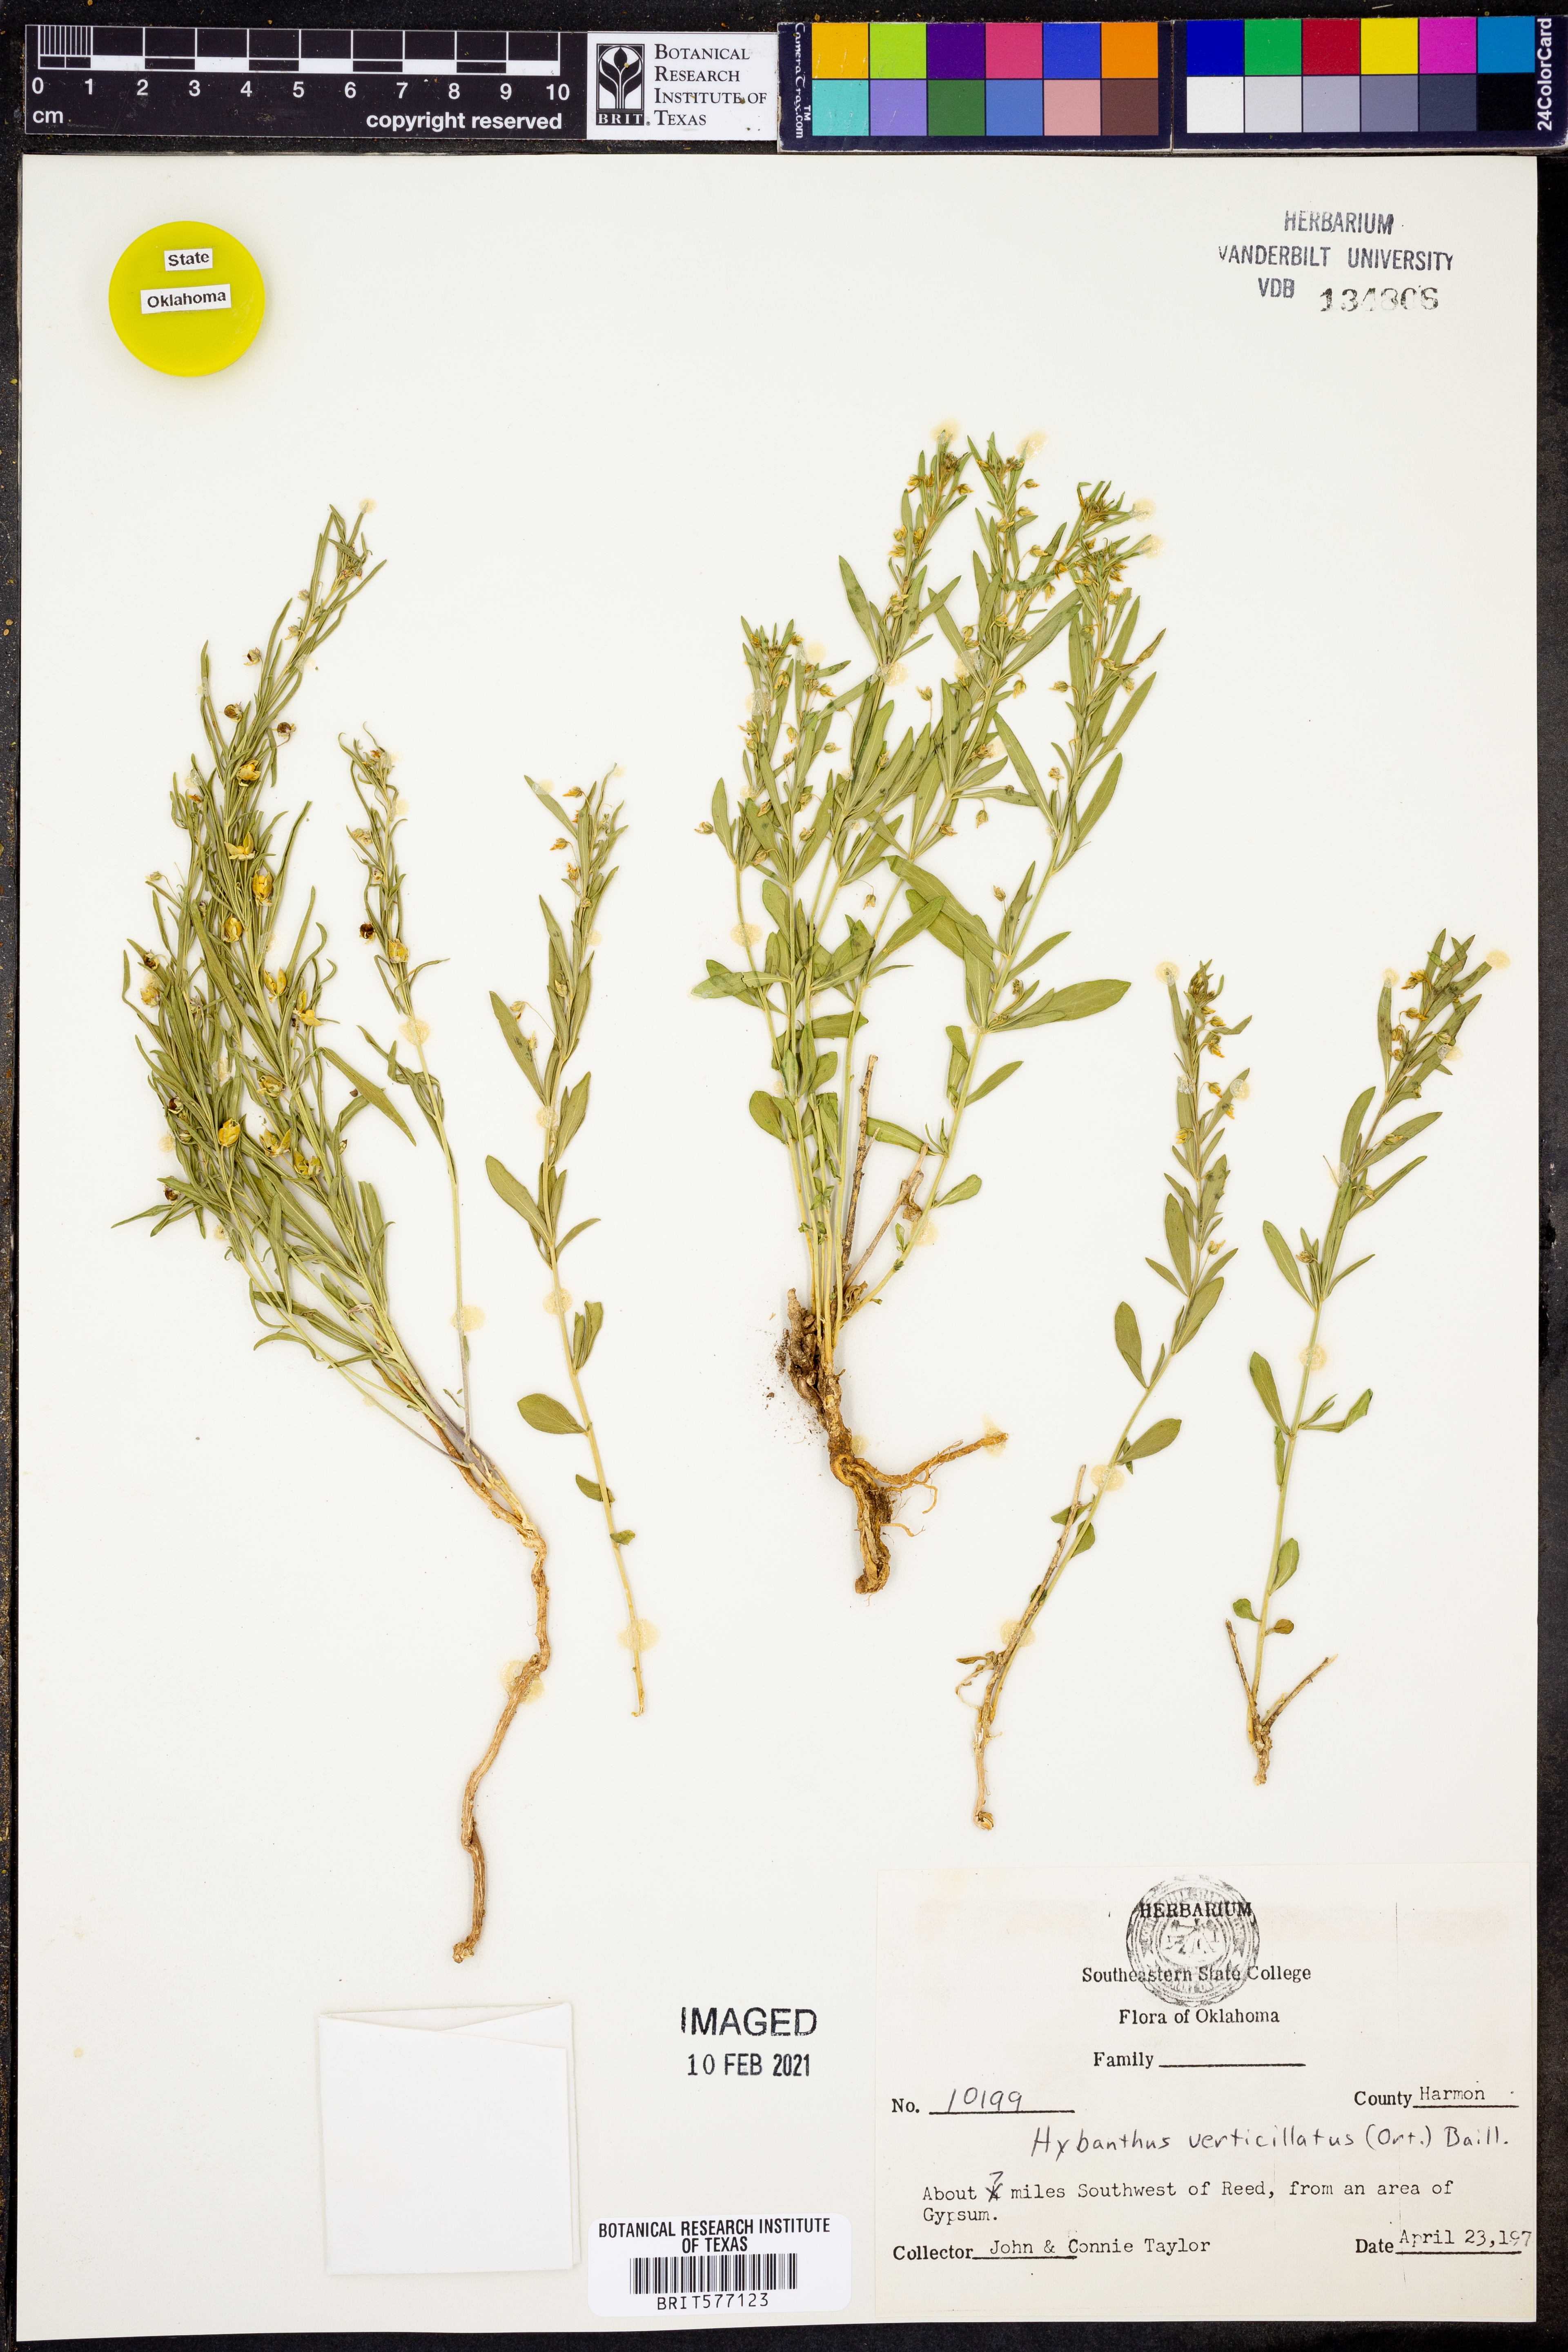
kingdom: Plantae
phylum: Tracheophyta
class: Magnoliopsida
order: Malpighiales
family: Violaceae
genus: Pombalia
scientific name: Pombalia verticillata
